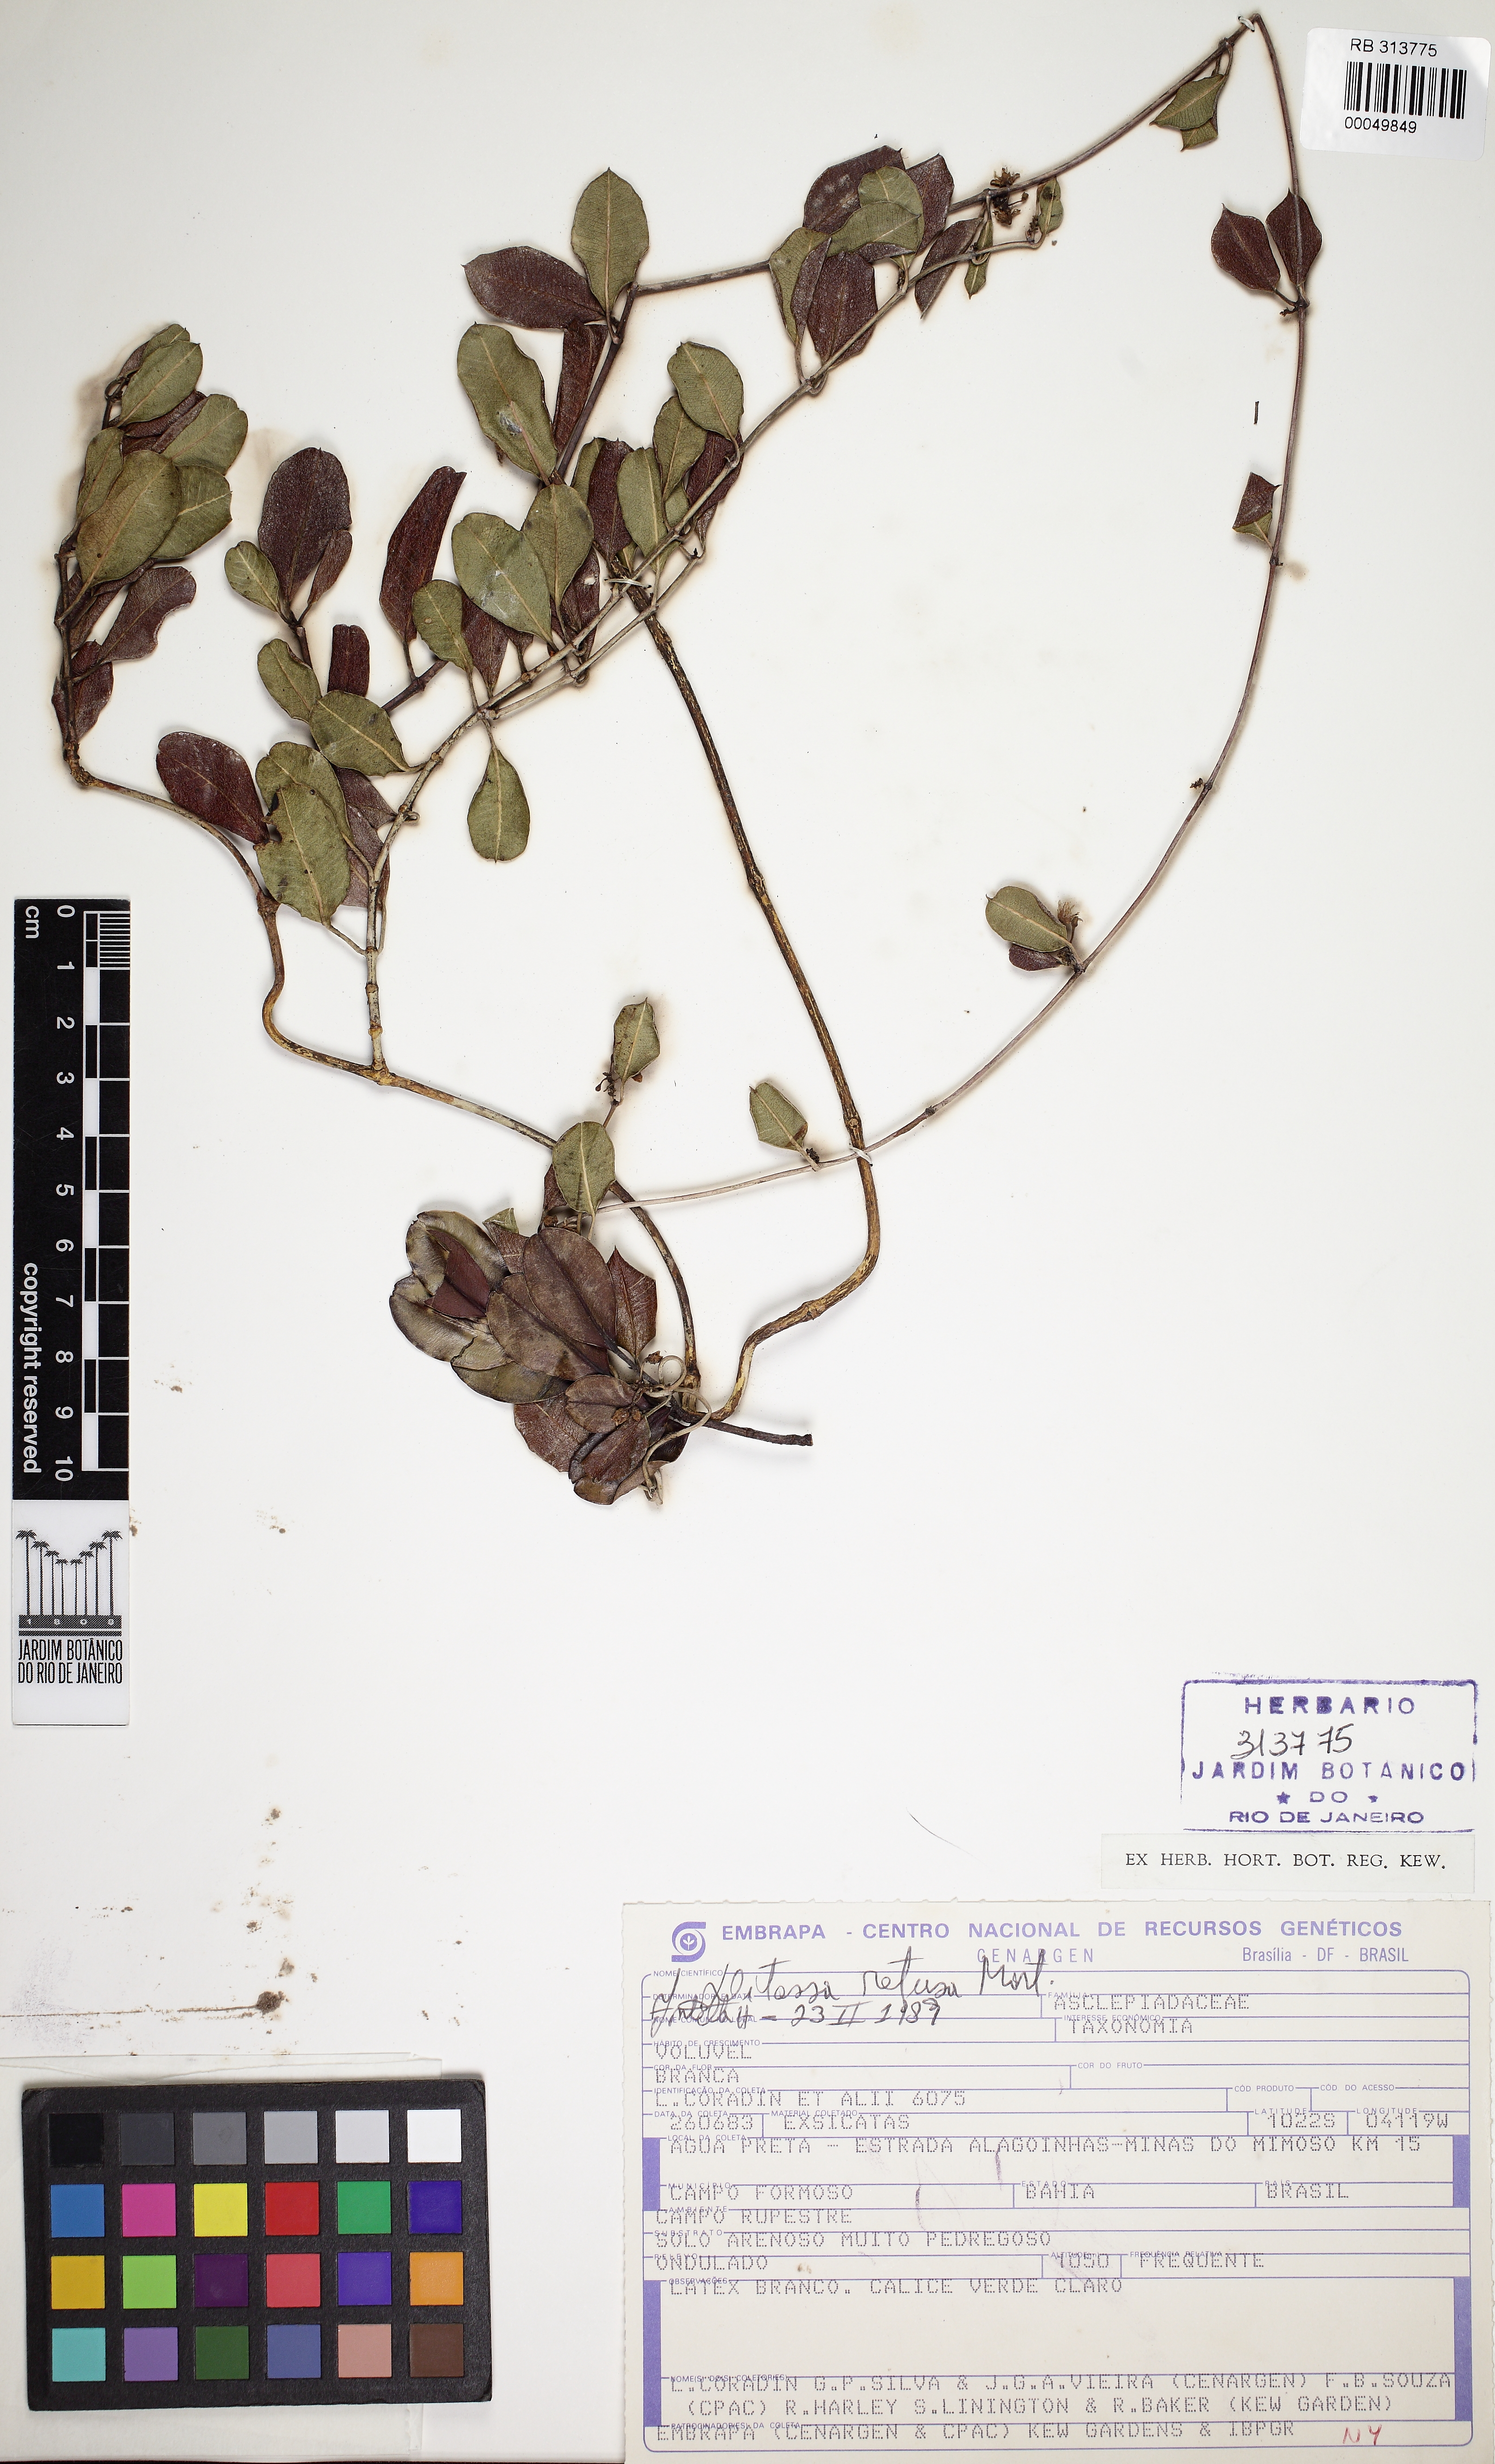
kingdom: Plantae
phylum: Tracheophyta
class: Magnoliopsida
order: Gentianales
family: Apocynaceae
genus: Ditassa
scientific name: Ditassa retusa
